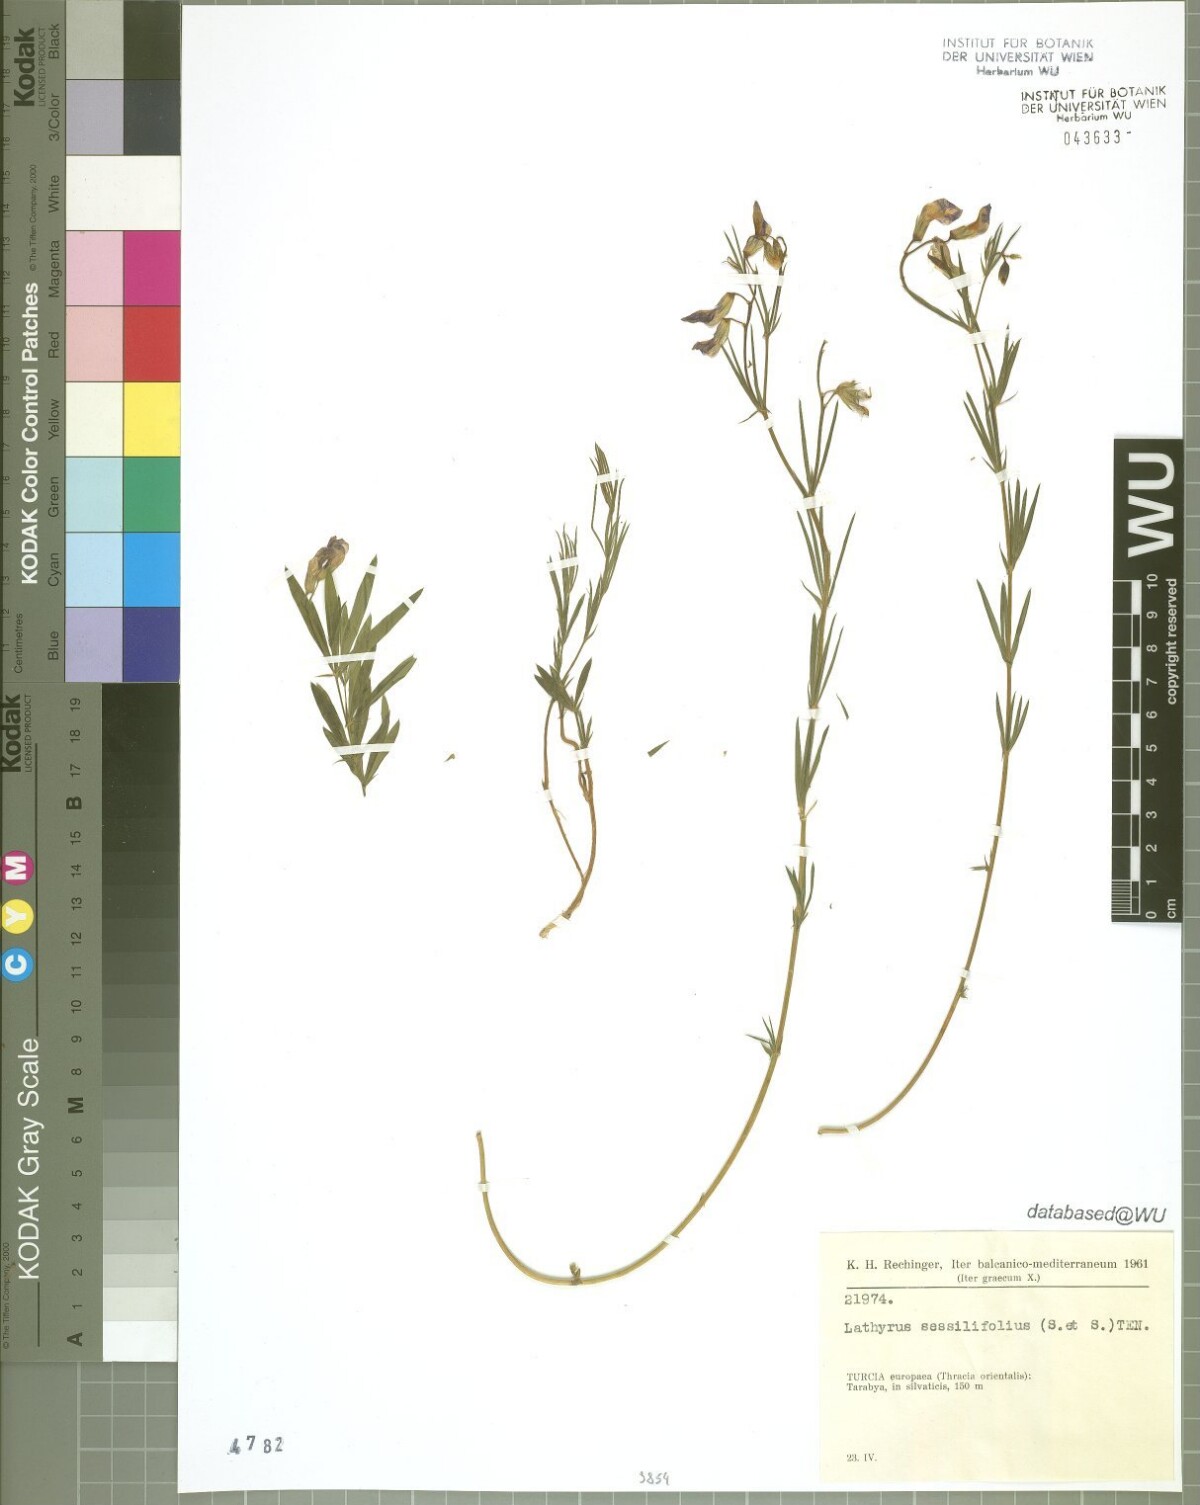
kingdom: Plantae
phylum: Tracheophyta
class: Magnoliopsida
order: Fabales
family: Fabaceae
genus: Lathyrus
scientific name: Lathyrus digitatus
